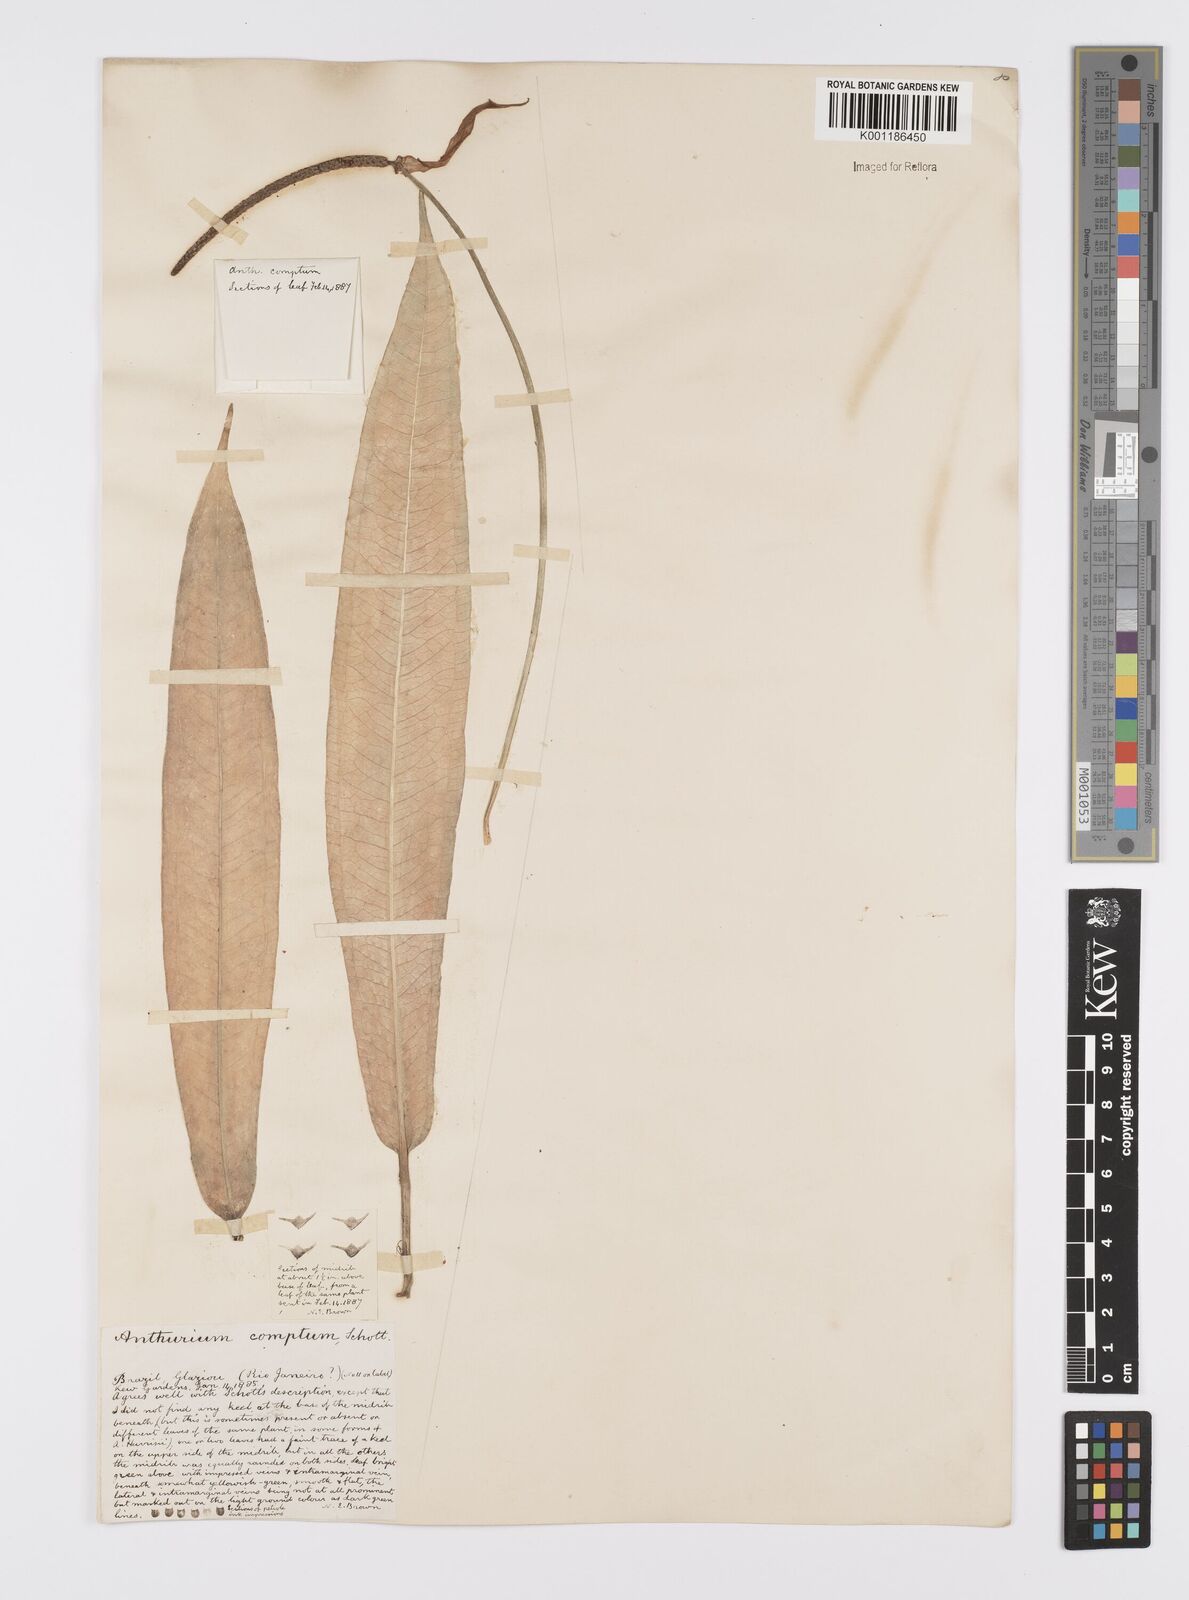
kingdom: Plantae
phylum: Tracheophyta
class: Liliopsida
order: Alismatales
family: Araceae
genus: Anthurium
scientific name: Anthurium comtum
